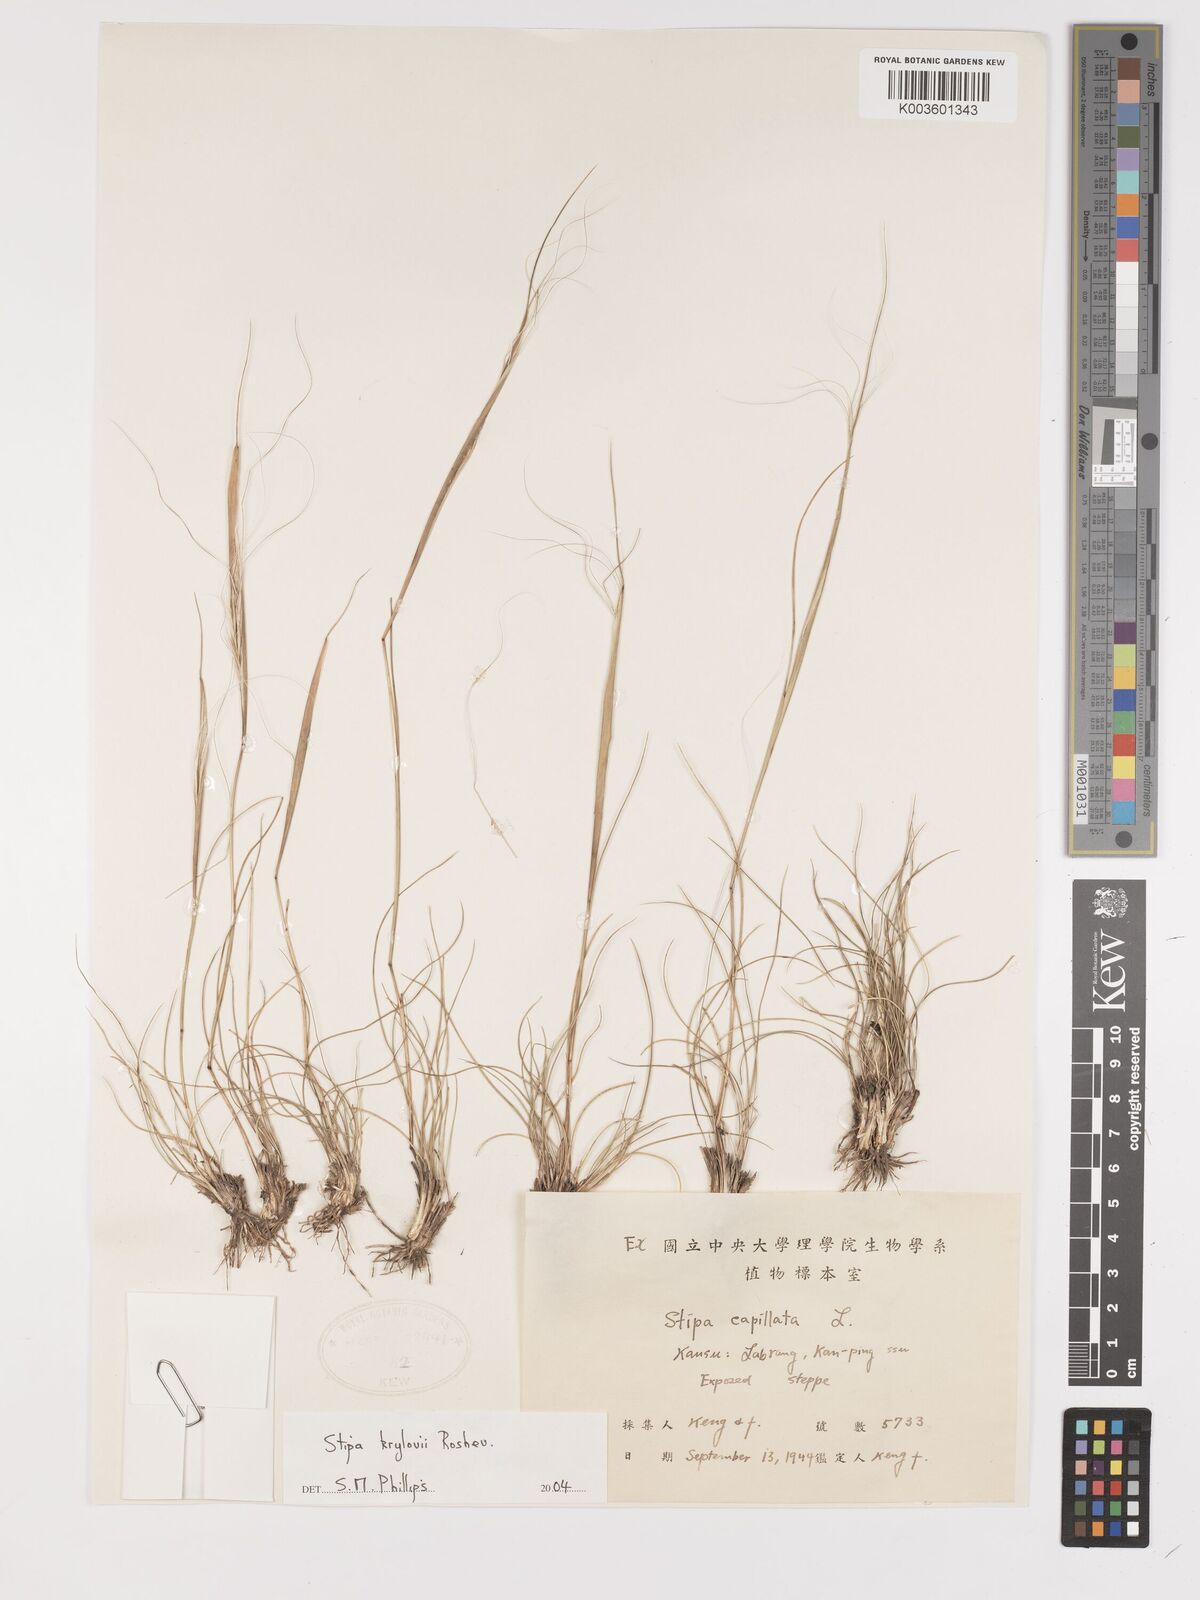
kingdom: Plantae
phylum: Tracheophyta
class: Liliopsida
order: Poales
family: Poaceae
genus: Stipa
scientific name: Stipa krylovii
